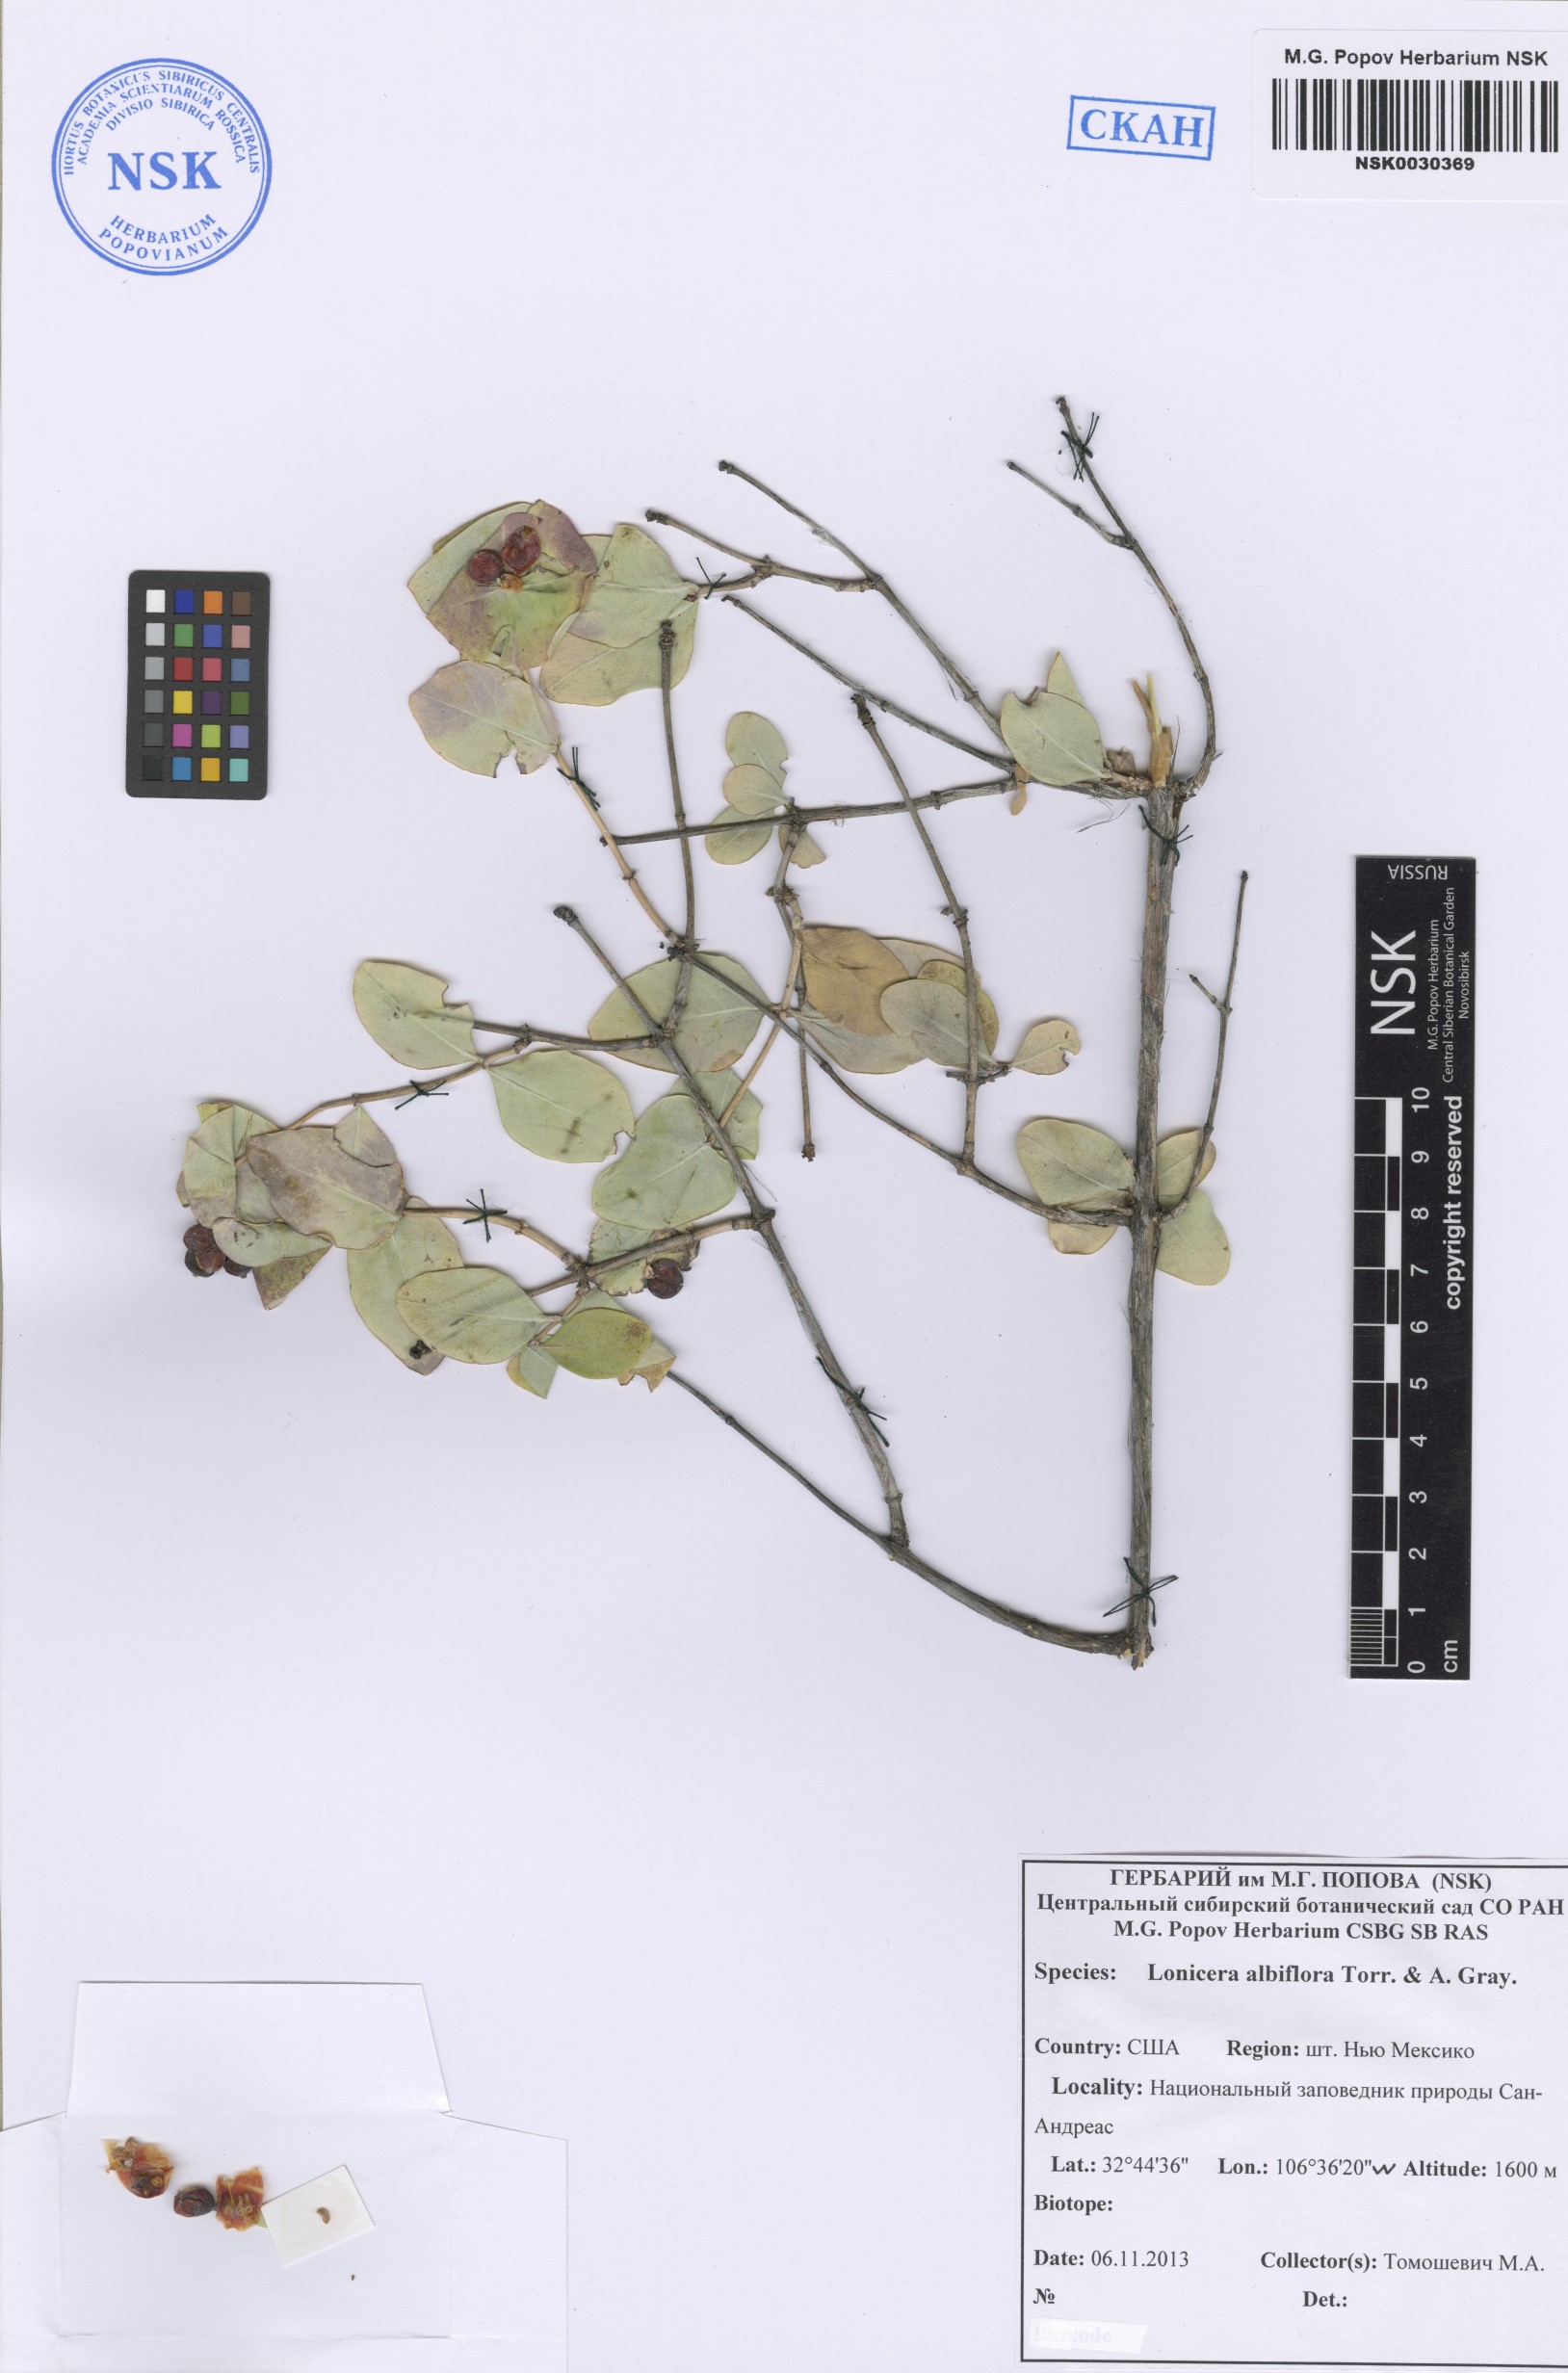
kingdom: Plantae
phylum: Tracheophyta
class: Magnoliopsida
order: Dipsacales
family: Caprifoliaceae
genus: Lonicera
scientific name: Lonicera albiflora
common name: White honeysuckle
